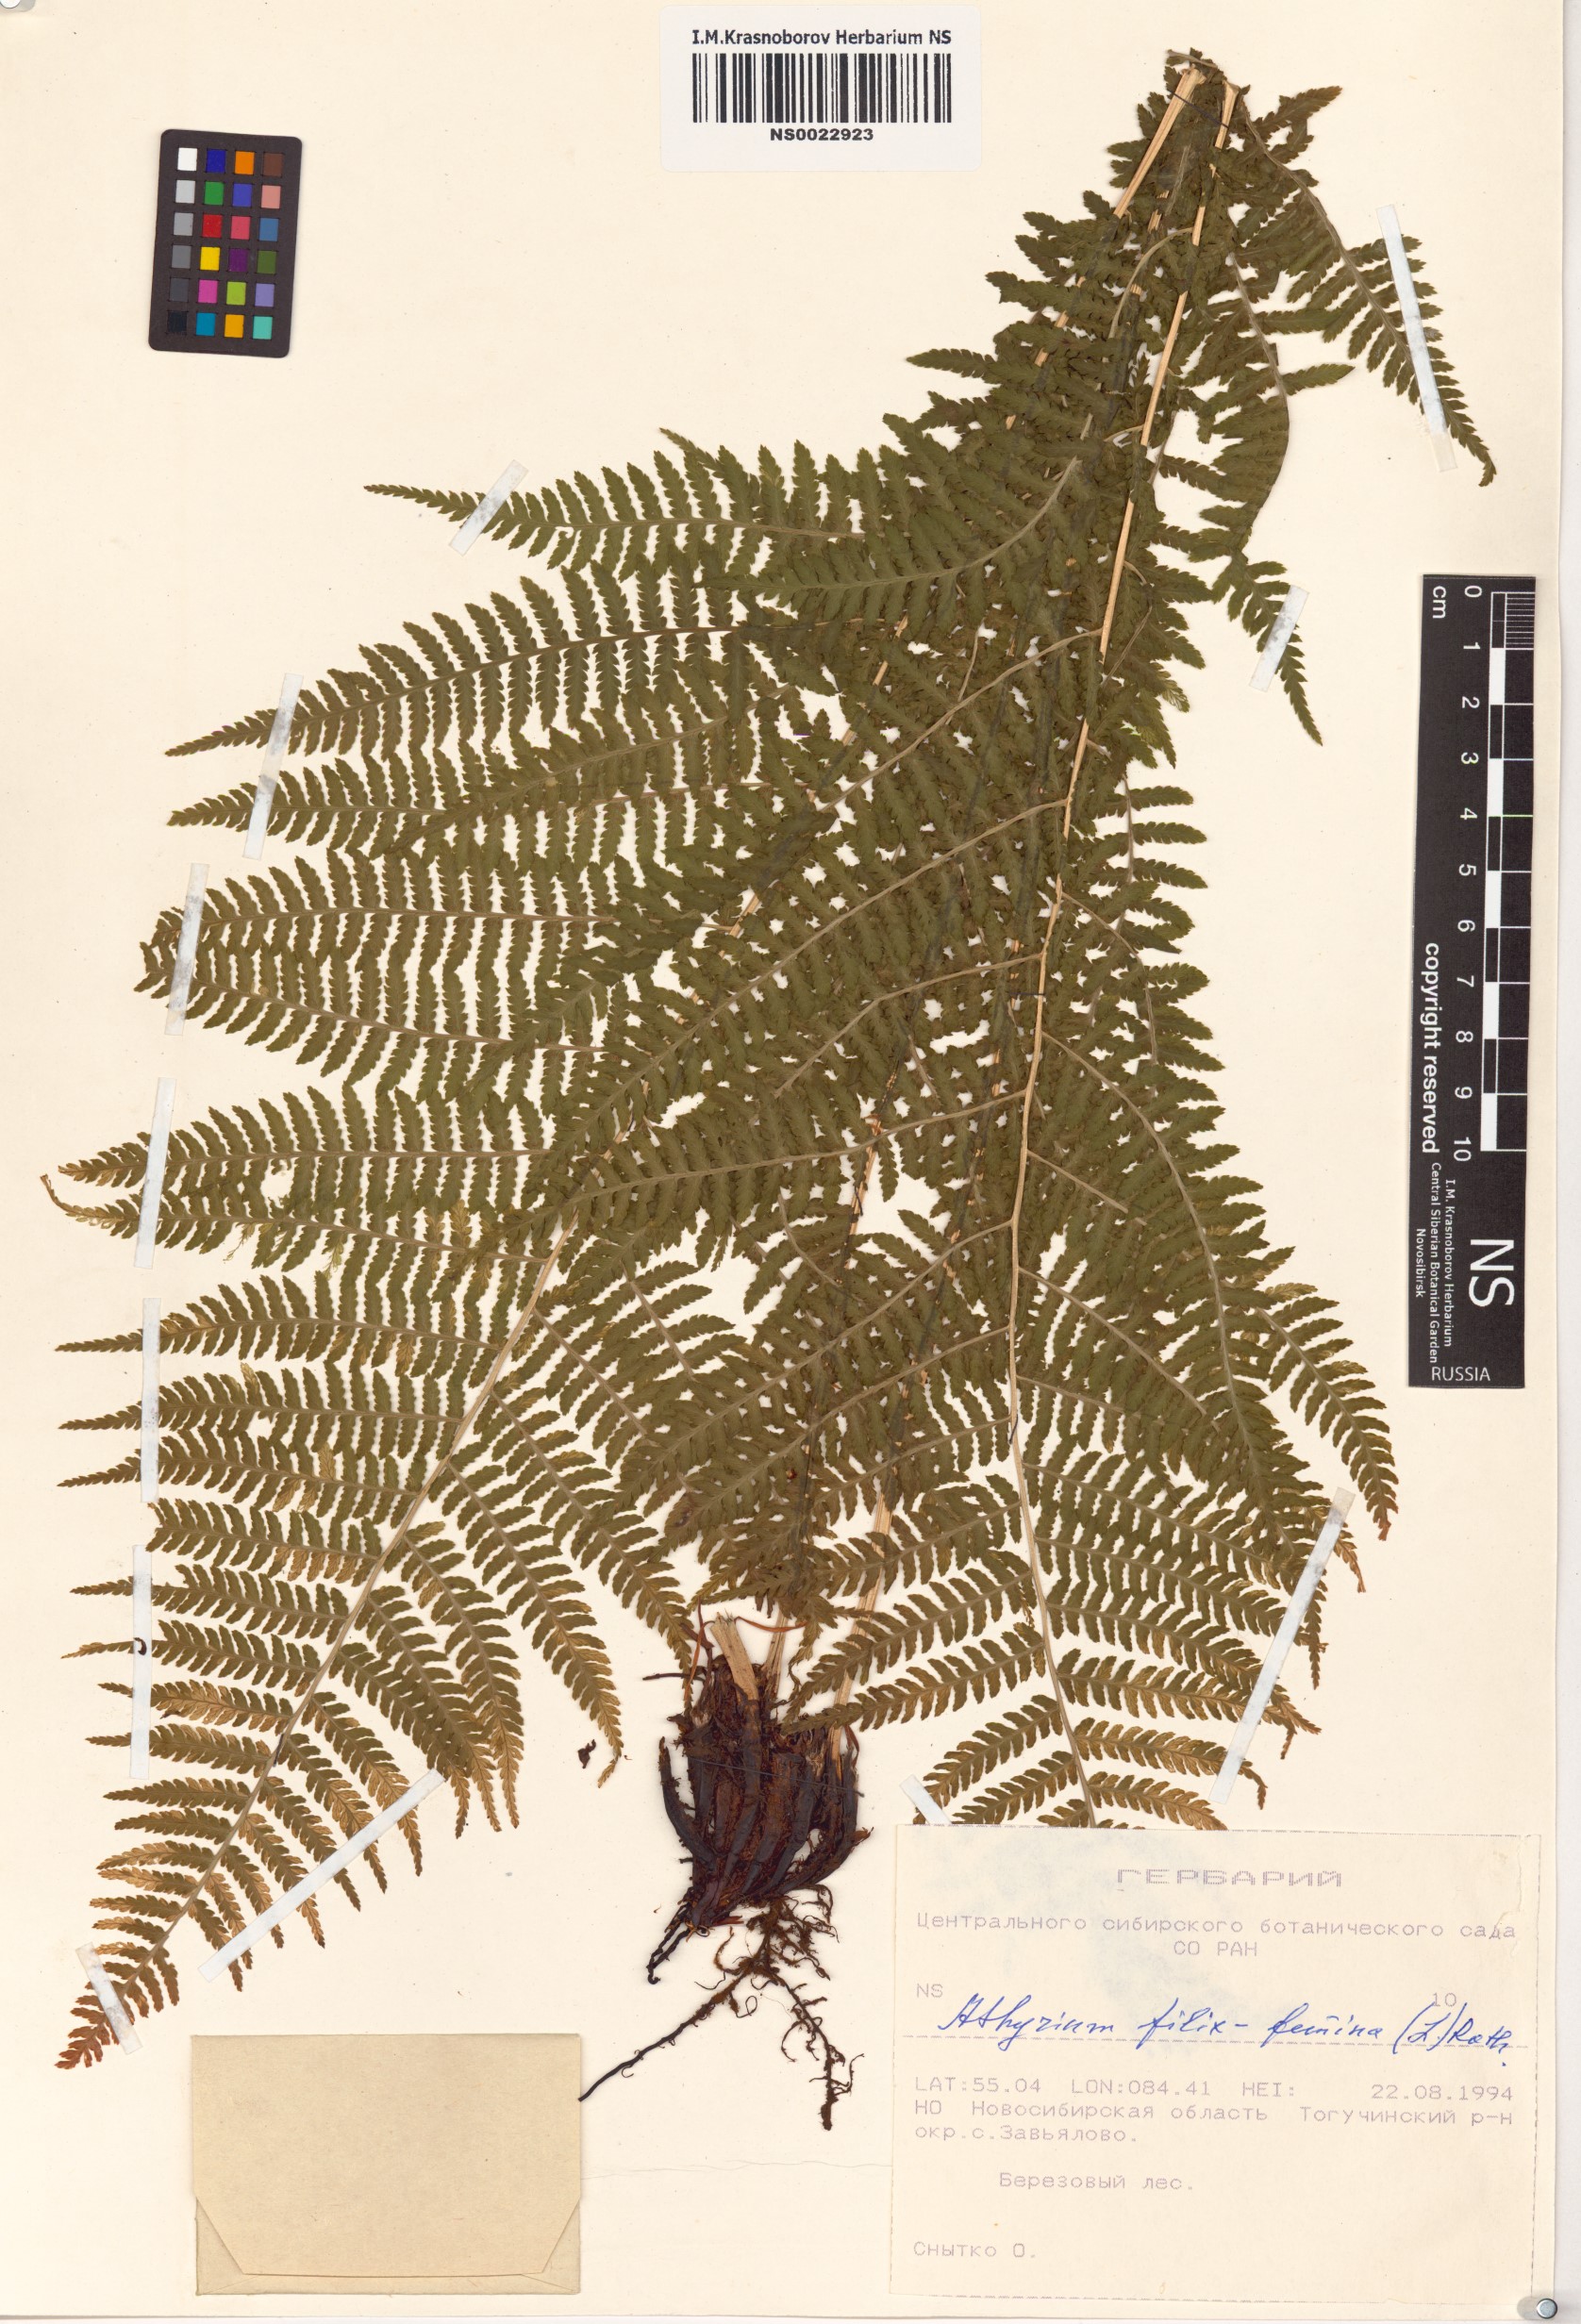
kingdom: Plantae
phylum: Tracheophyta
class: Polypodiopsida
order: Polypodiales
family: Athyriaceae
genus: Athyrium
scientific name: Athyrium filix-femina
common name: Lady fern
